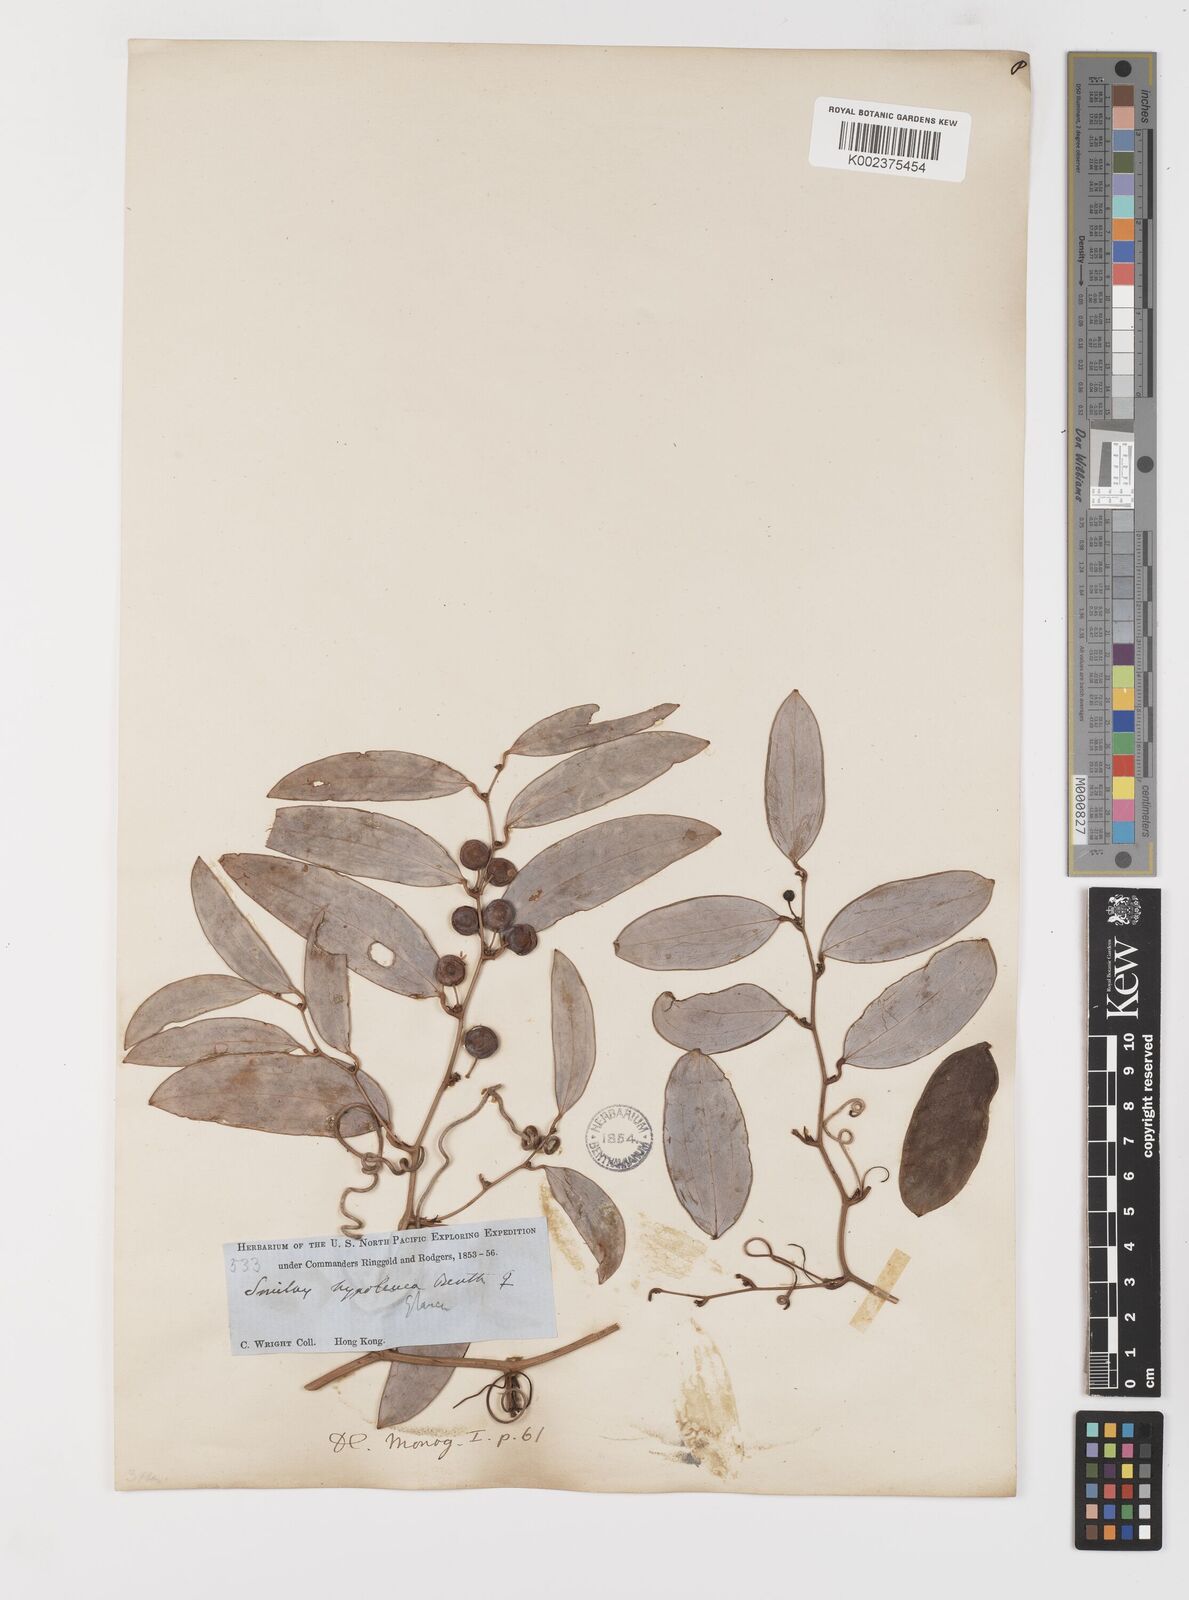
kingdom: Plantae
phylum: Tracheophyta
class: Liliopsida
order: Liliales
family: Smilacaceae
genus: Smilax
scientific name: Smilax hypoglauca
